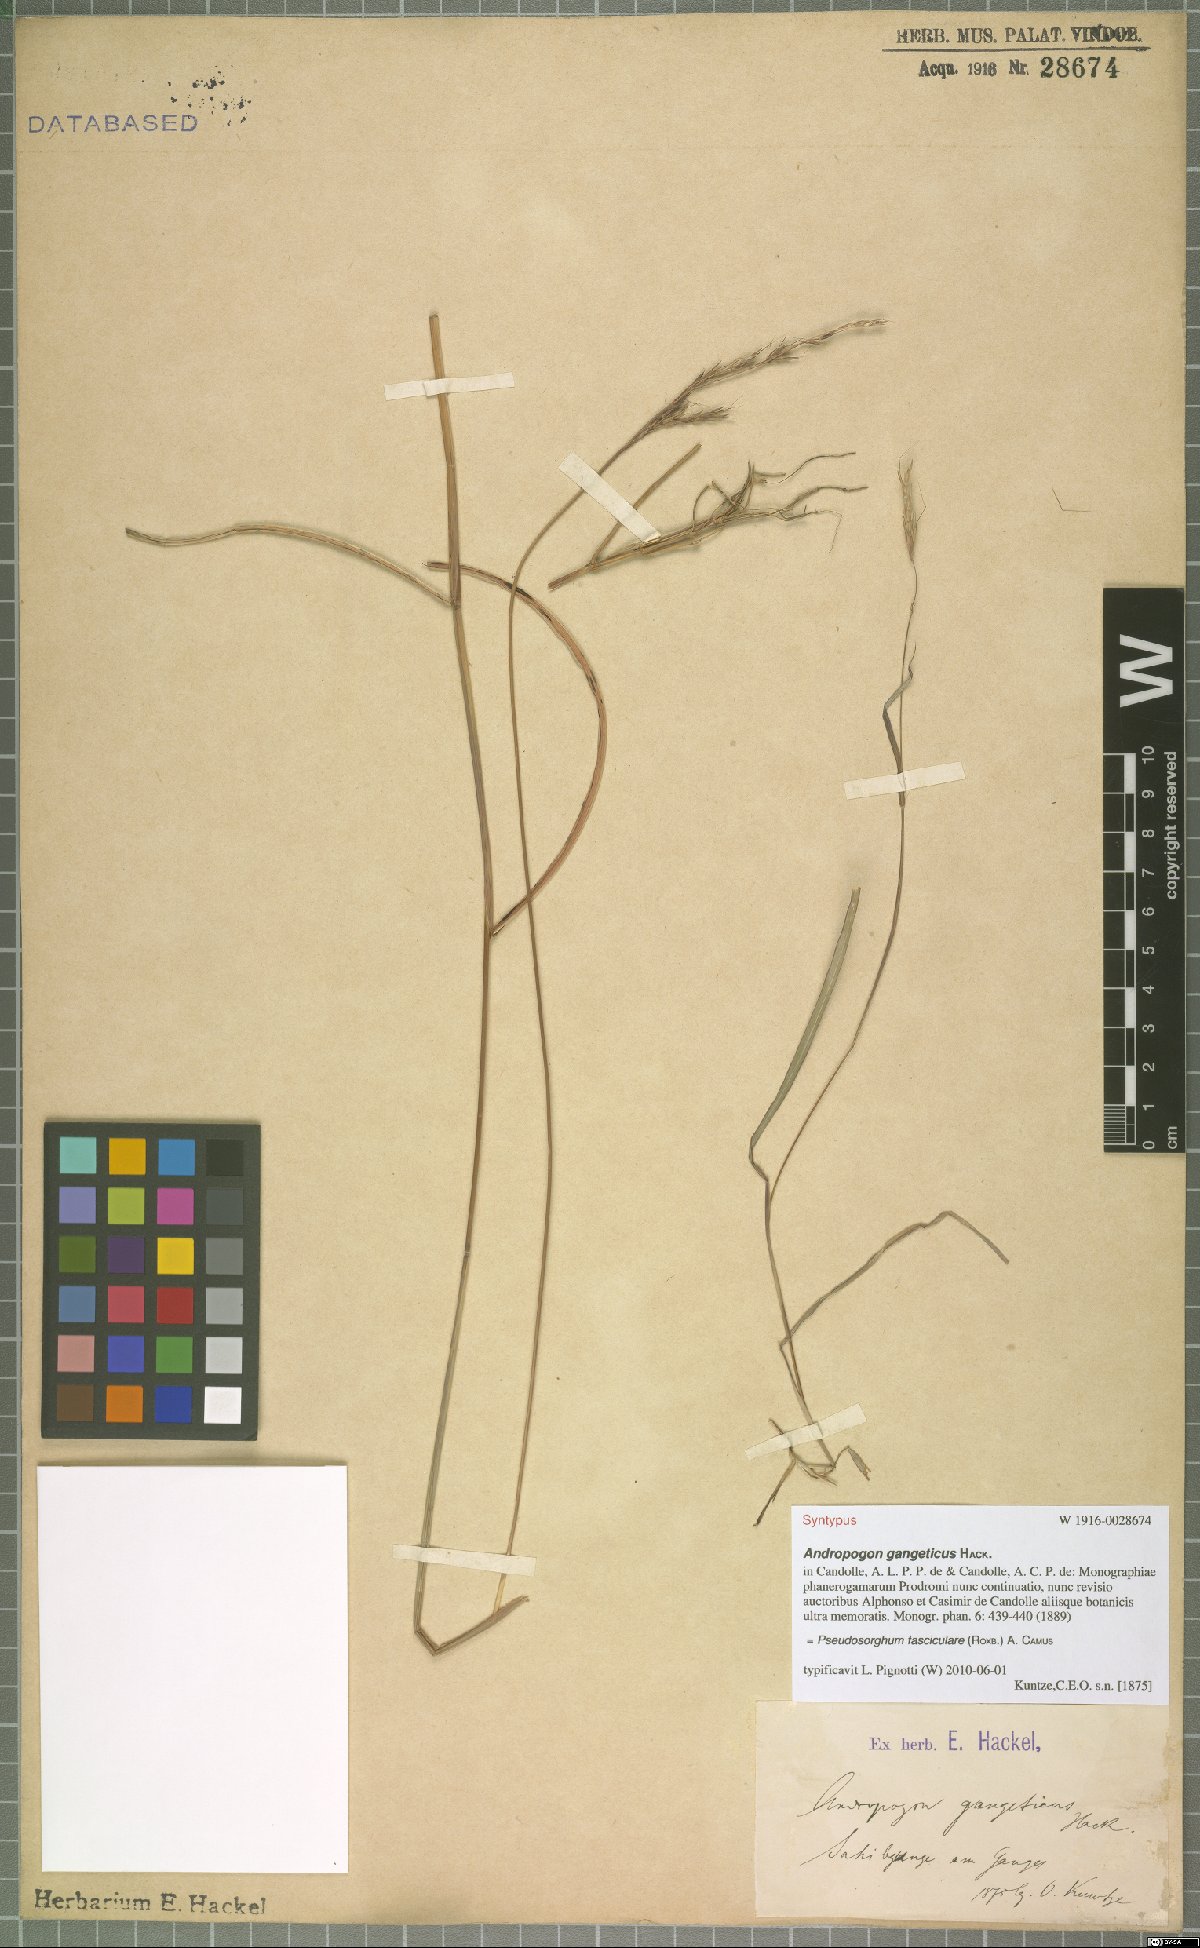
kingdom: Plantae
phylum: Tracheophyta
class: Liliopsida
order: Poales
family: Poaceae
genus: Pseudosorghum
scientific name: Pseudosorghum fasciculare
